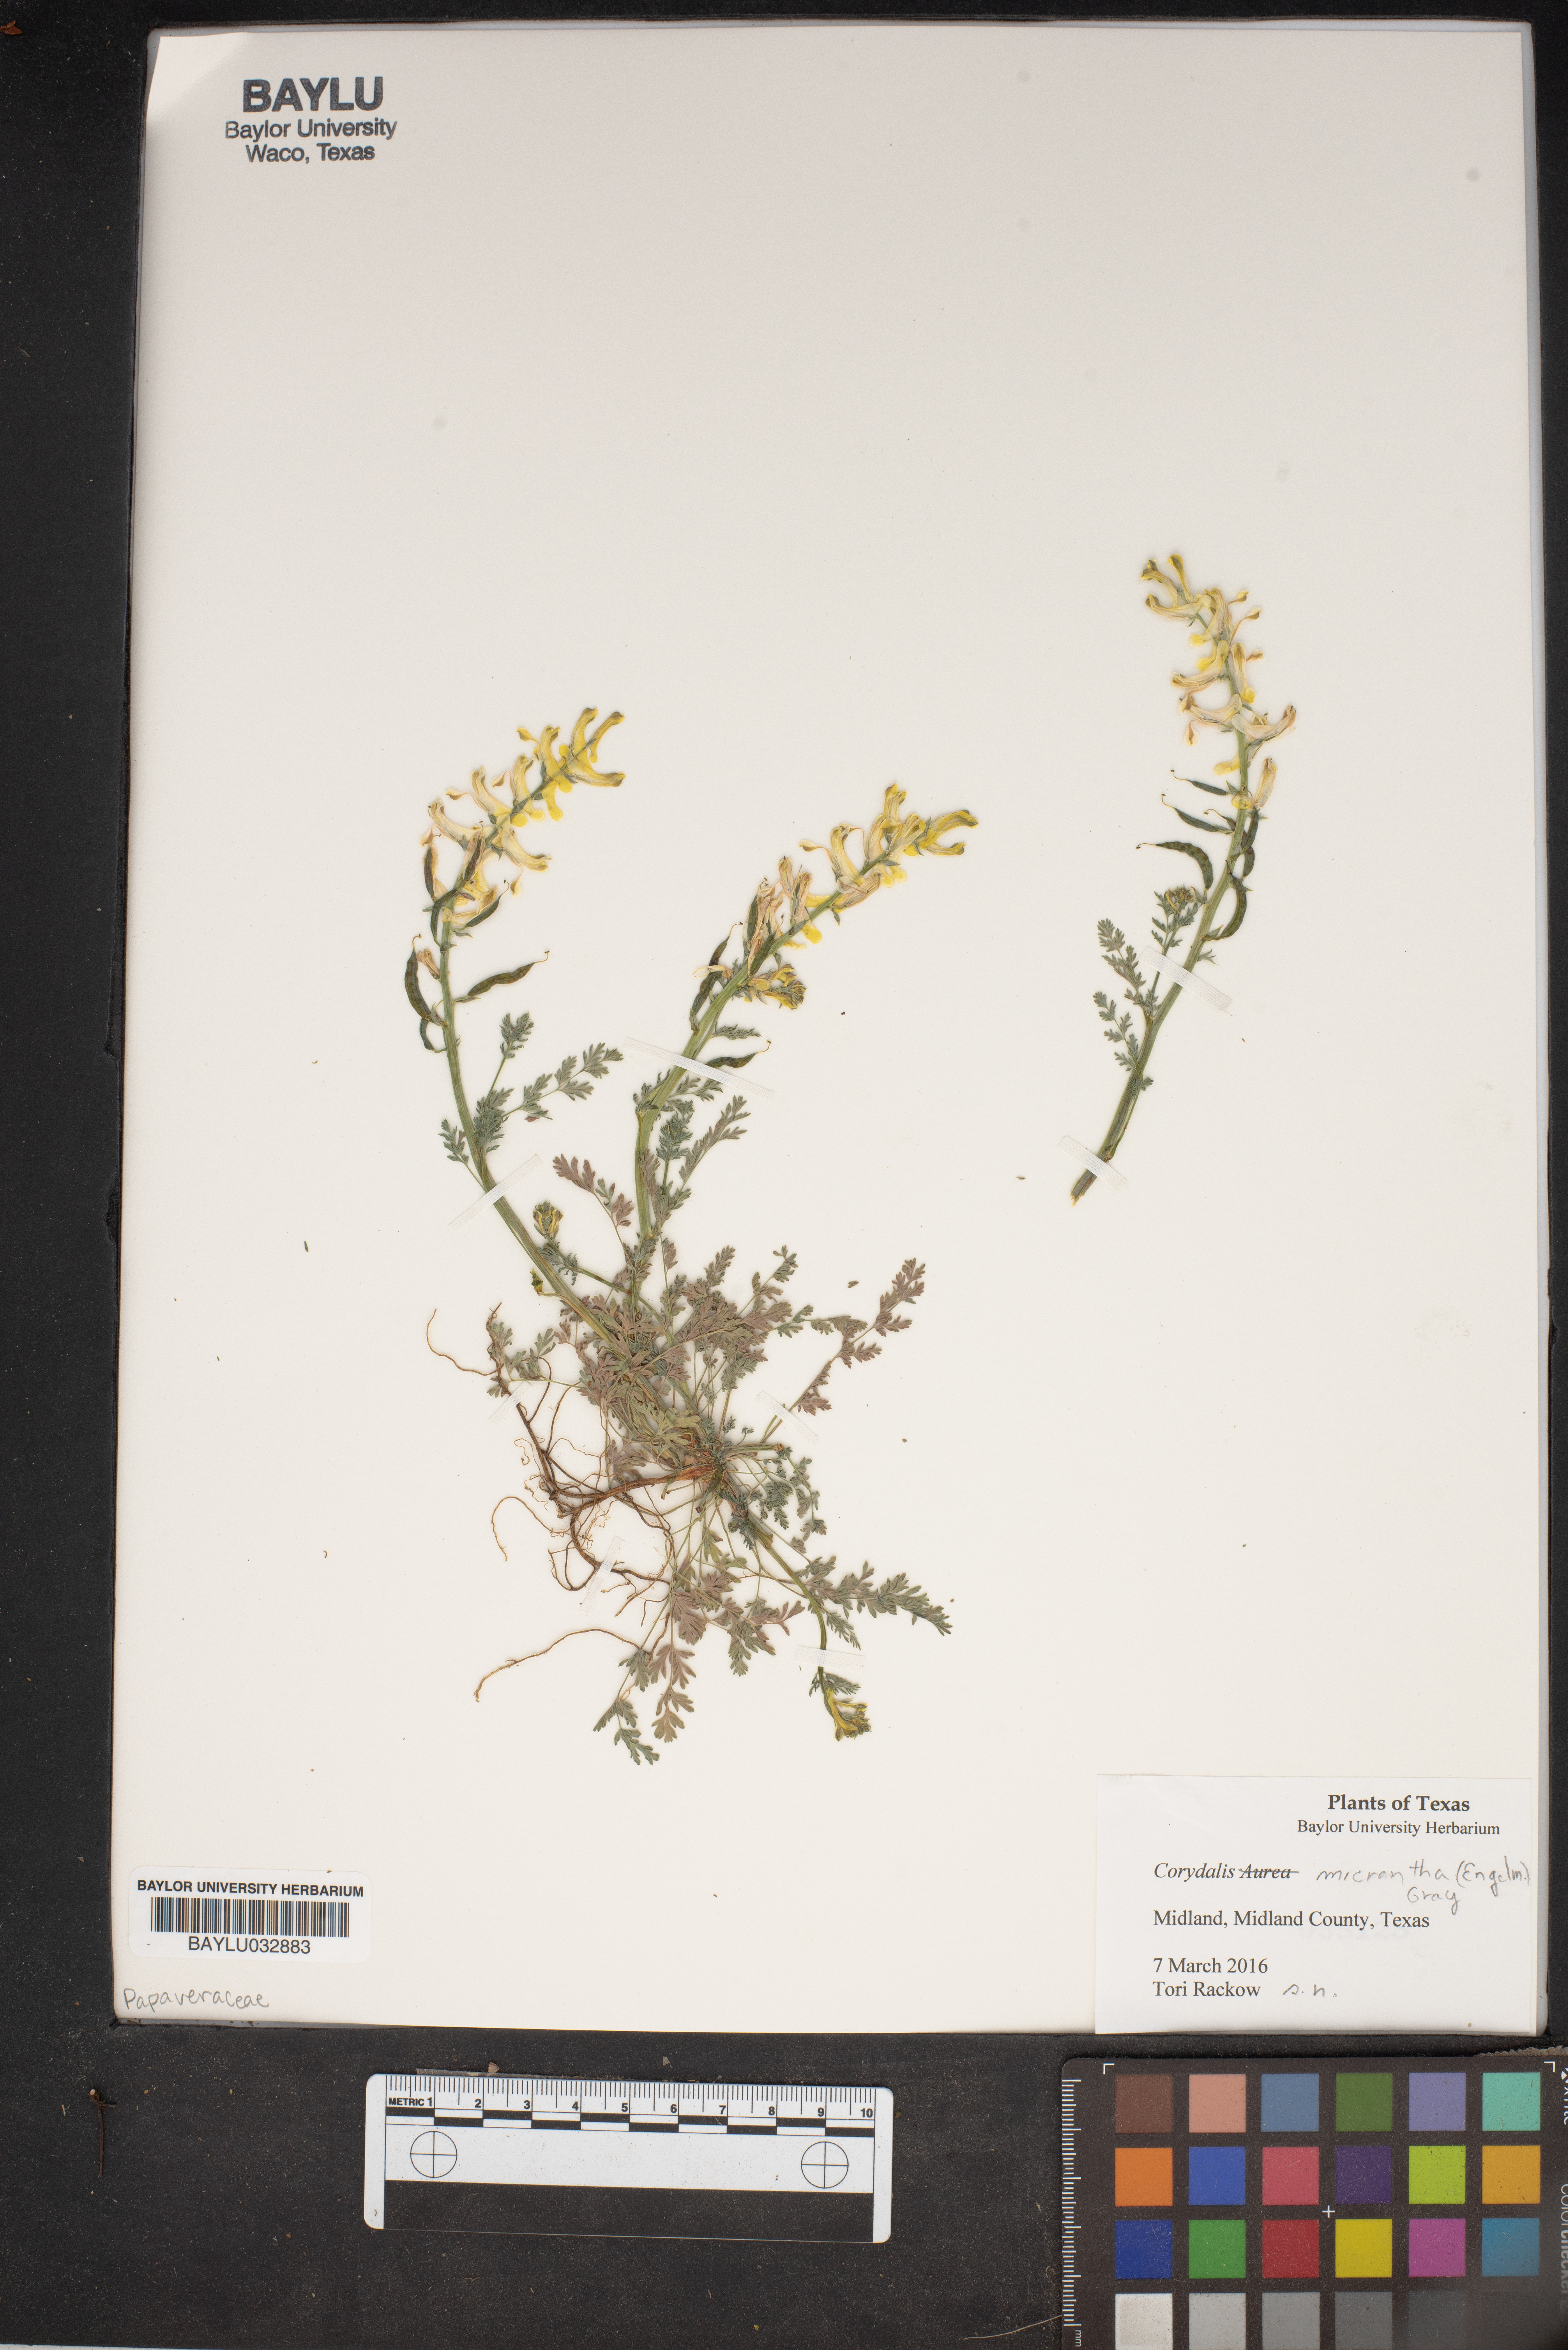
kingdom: Plantae
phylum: Tracheophyta
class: Magnoliopsida
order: Ranunculales
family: Papaveraceae
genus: Corydalis
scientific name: Corydalis micrantha
